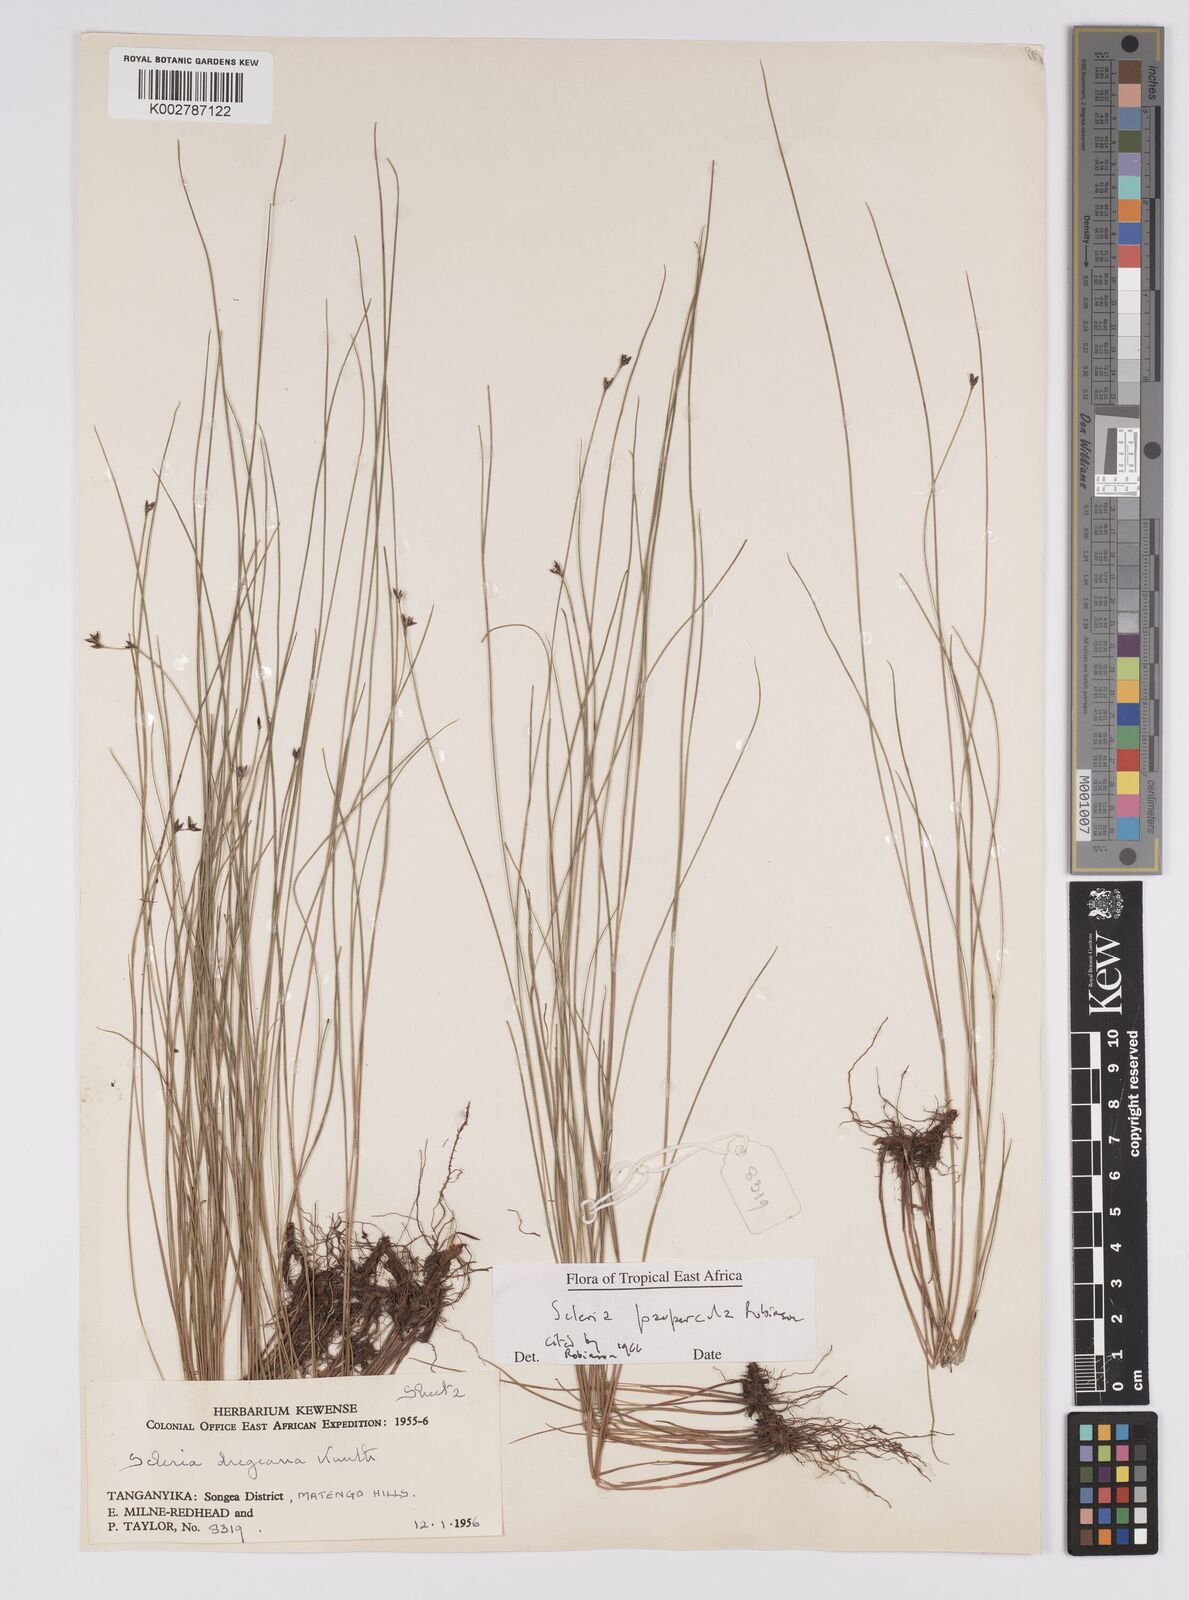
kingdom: Plantae
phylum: Tracheophyta
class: Liliopsida
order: Poales
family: Cyperaceae
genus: Scleria
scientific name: Scleria paupercula
